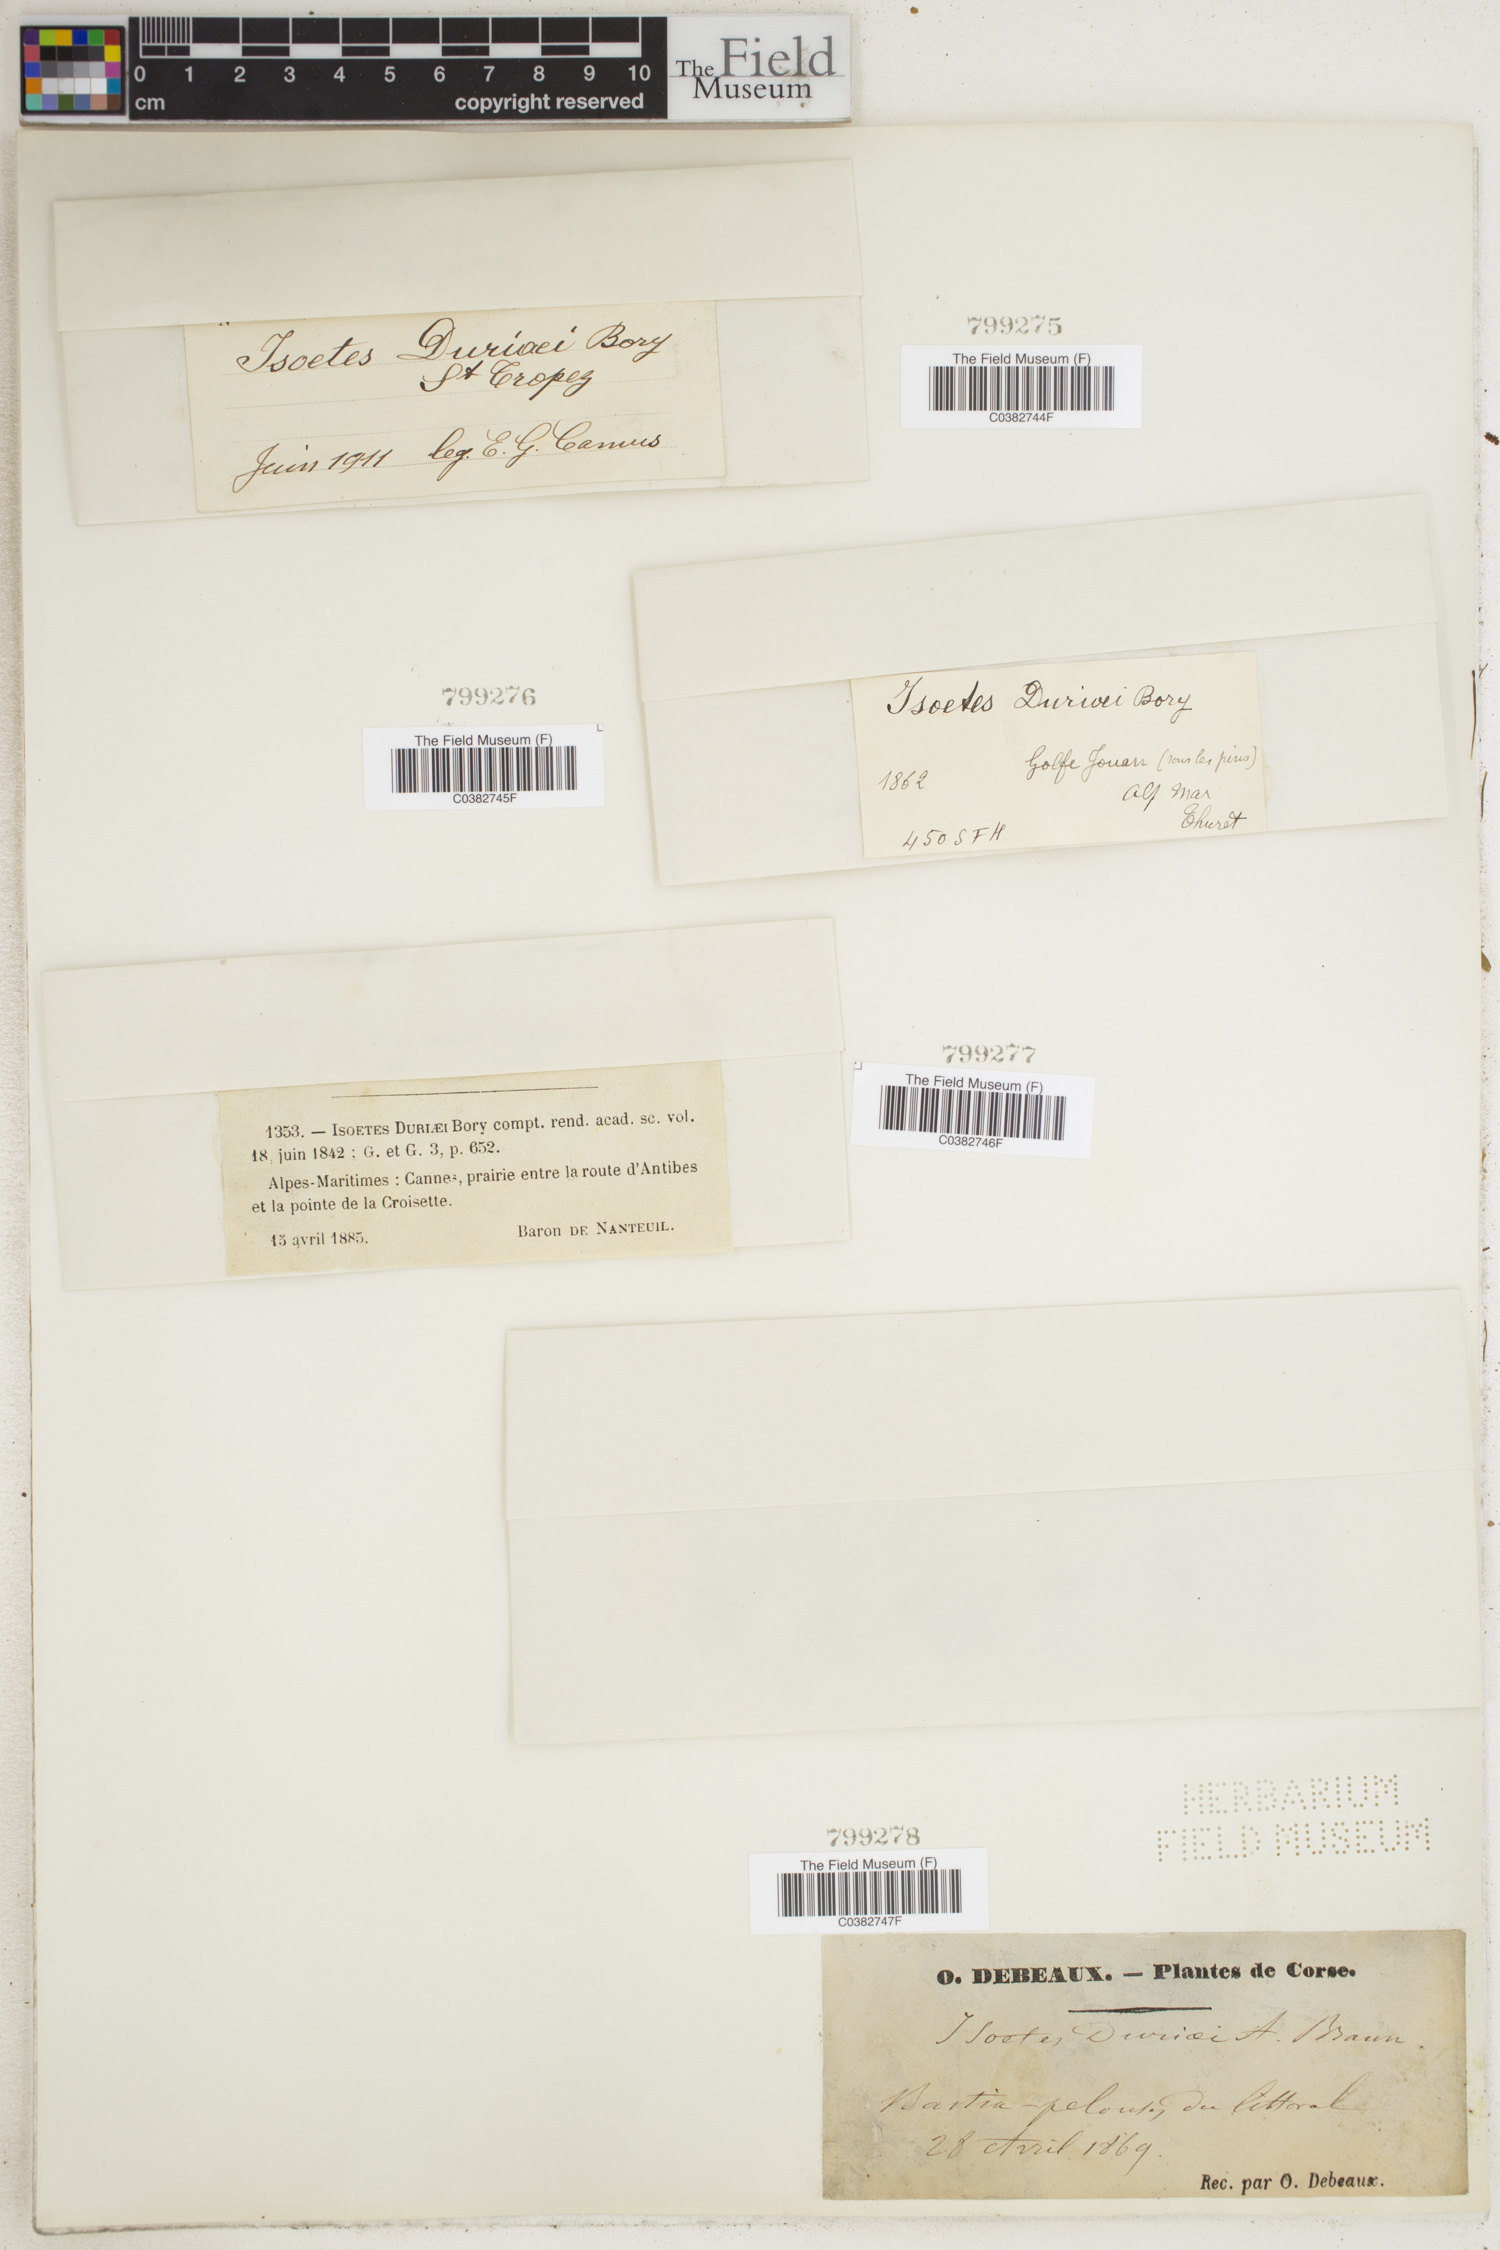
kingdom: Plantae
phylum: Tracheophyta
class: Lycopodiopsida
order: Isoetales
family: Isoetaceae
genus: Isoetes
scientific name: Isoetes duriei
